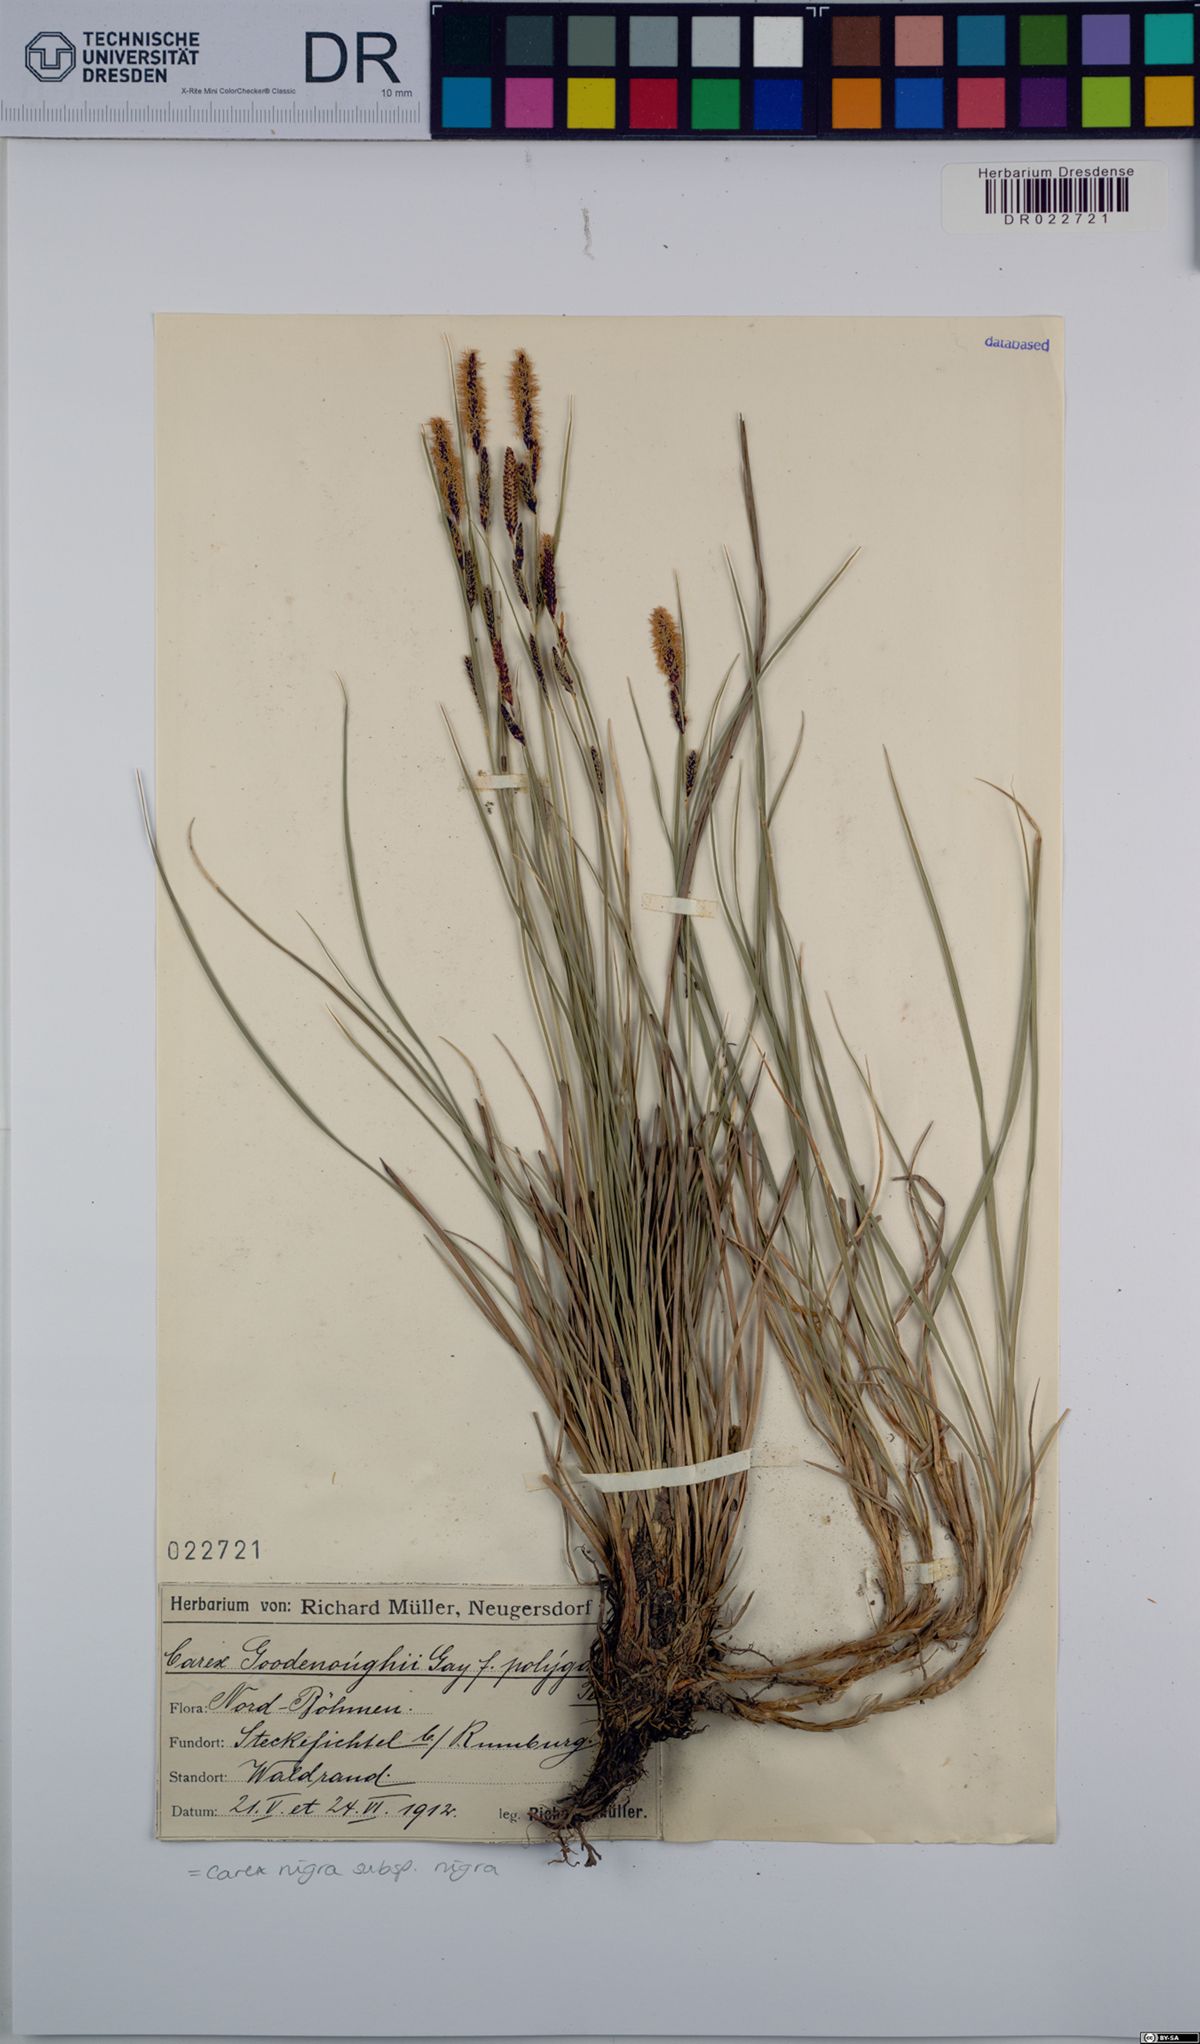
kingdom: Plantae
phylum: Tracheophyta
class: Liliopsida
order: Poales
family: Cyperaceae
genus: Carex
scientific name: Carex nigra
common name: Common sedge
